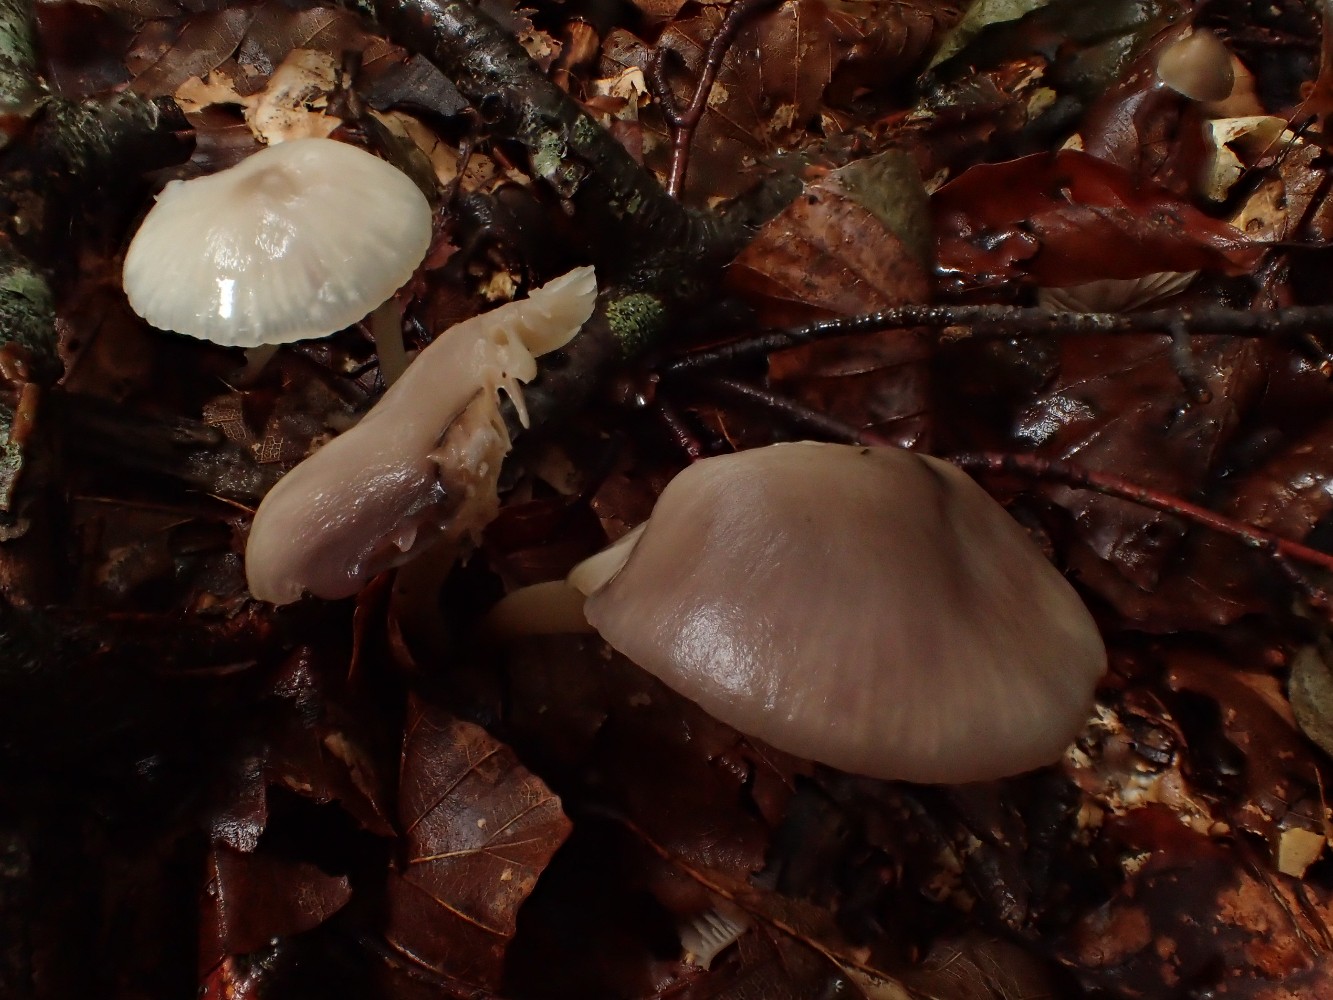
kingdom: Fungi
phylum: Basidiomycota
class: Agaricomycetes
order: Agaricales
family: Marasmiaceae
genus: Marasmius
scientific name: Marasmius wynneae
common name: hvælvet bruskhat
